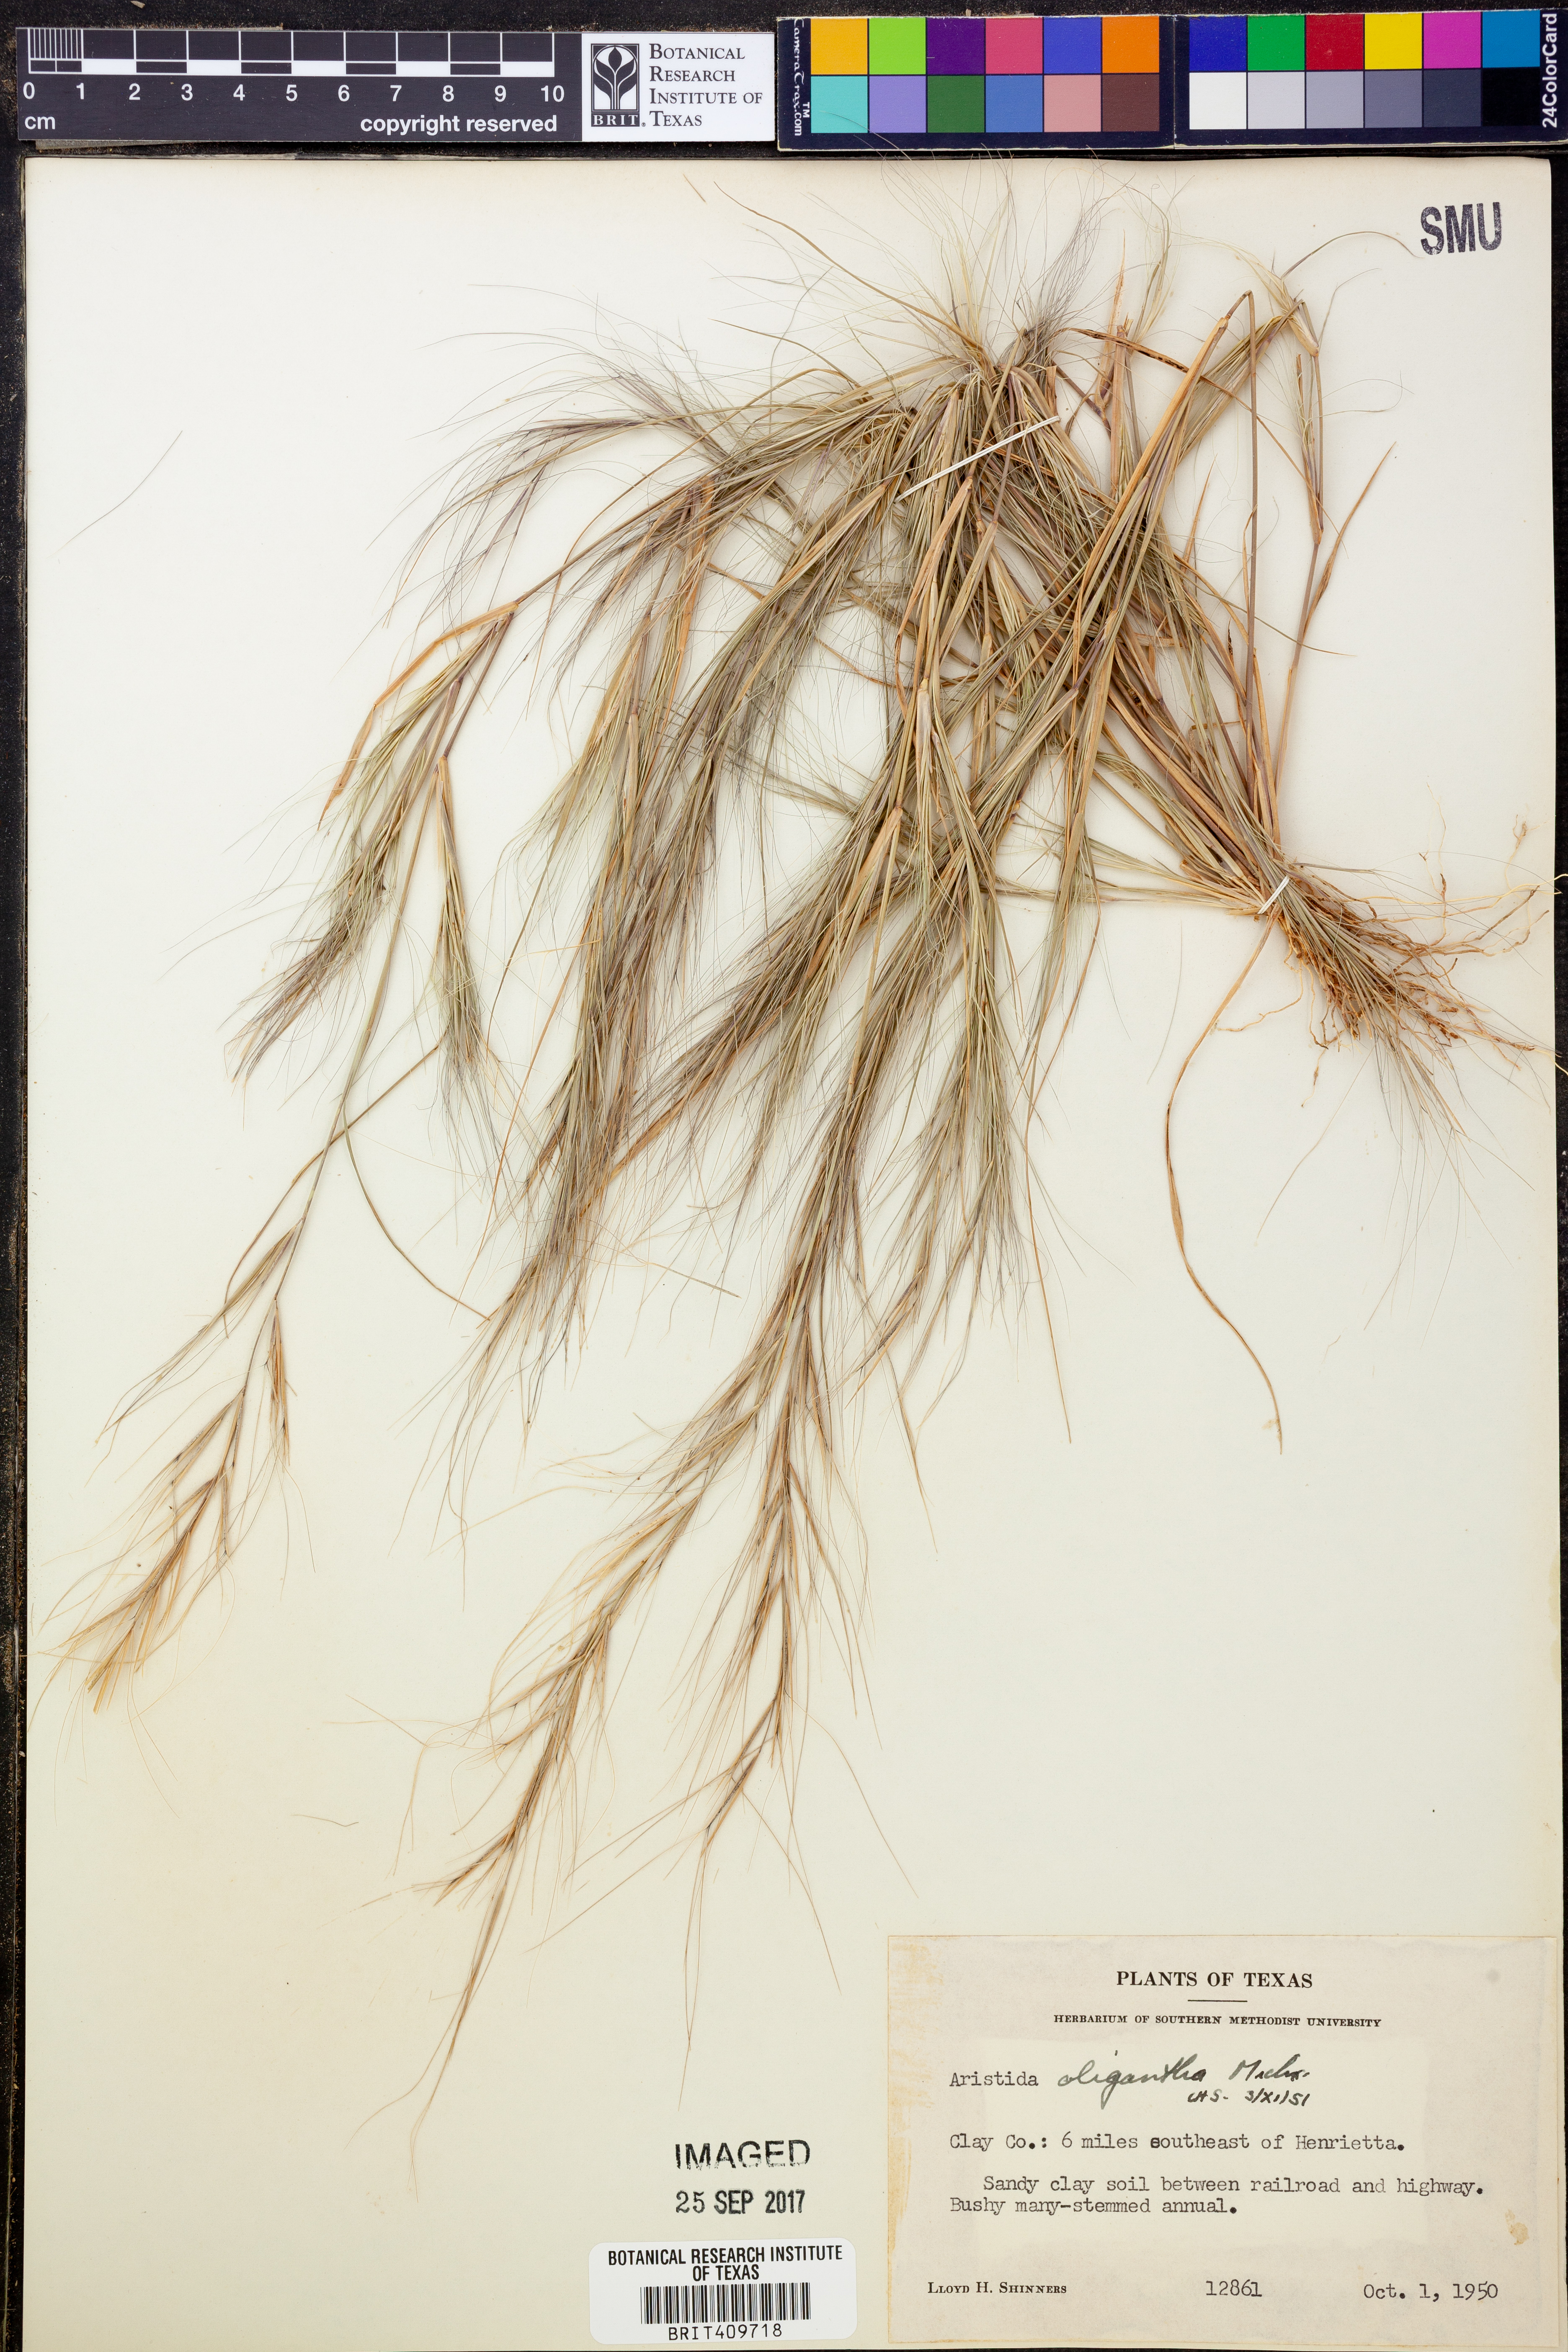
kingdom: Plantae
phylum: Tracheophyta
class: Liliopsida
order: Poales
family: Poaceae
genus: Aristida
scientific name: Aristida oligantha
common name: Few-flowered aristida
